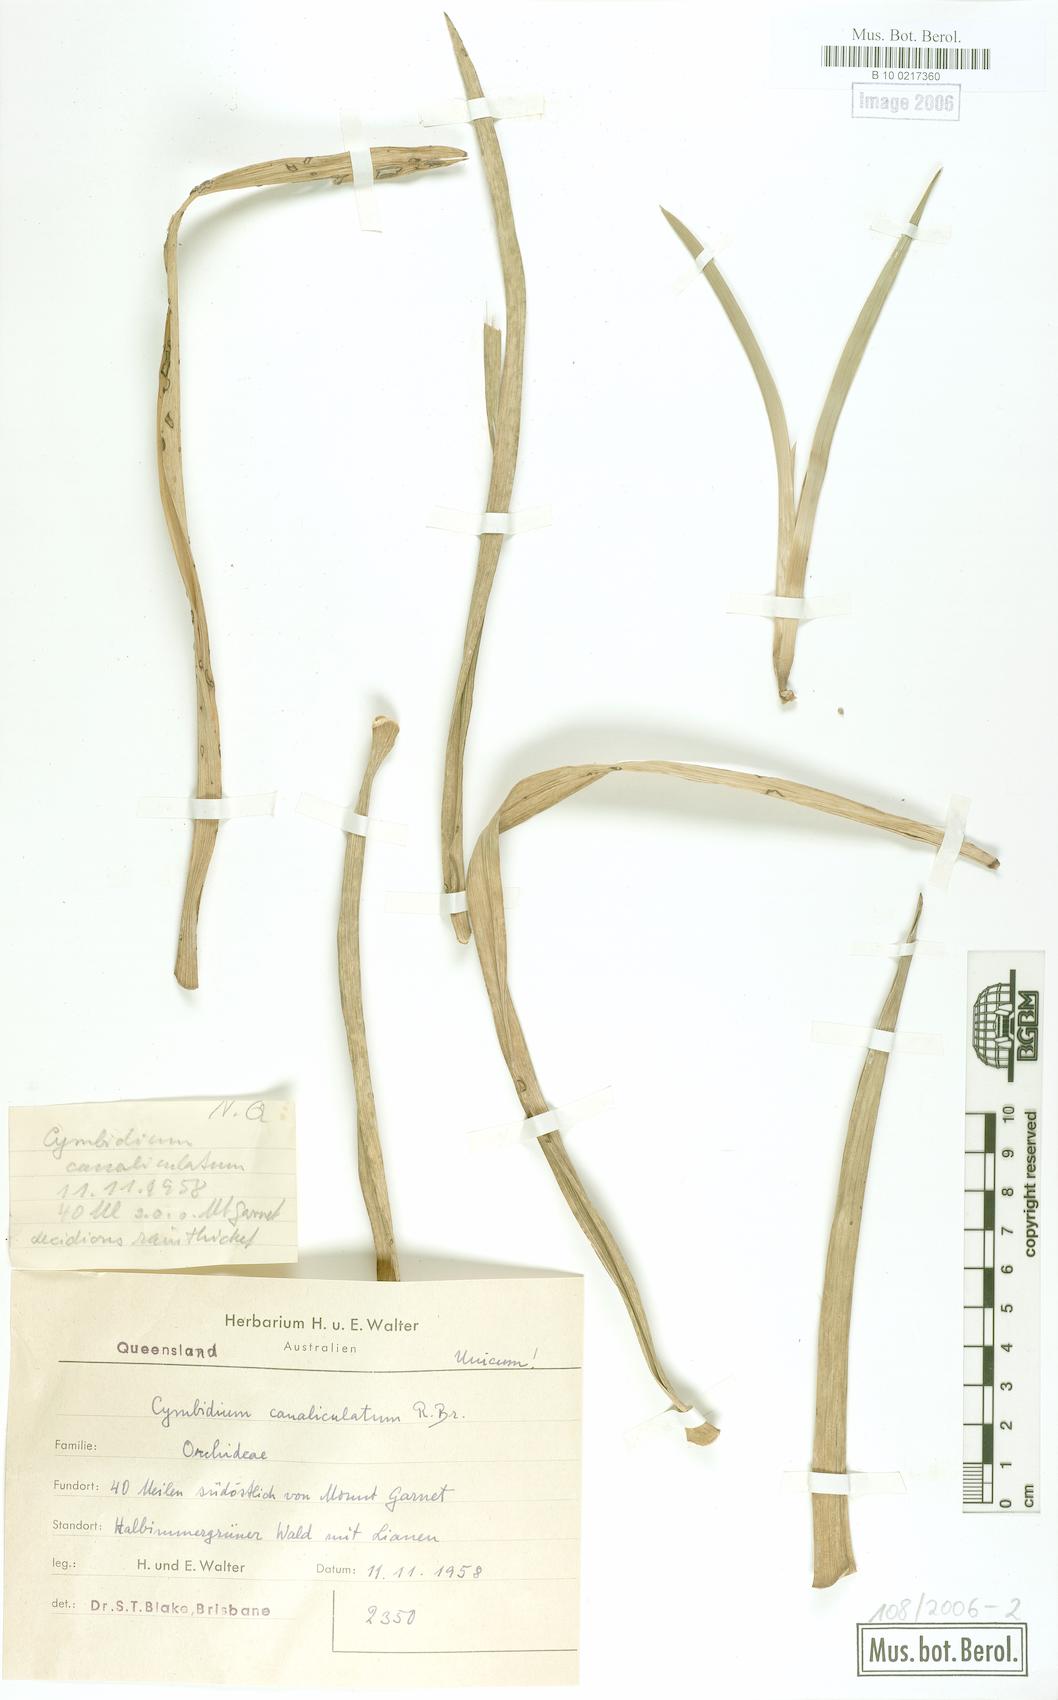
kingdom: Plantae
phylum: Tracheophyta
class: Liliopsida
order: Asparagales
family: Orchidaceae
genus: Cymbidium
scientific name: Cymbidium canaliculatum
